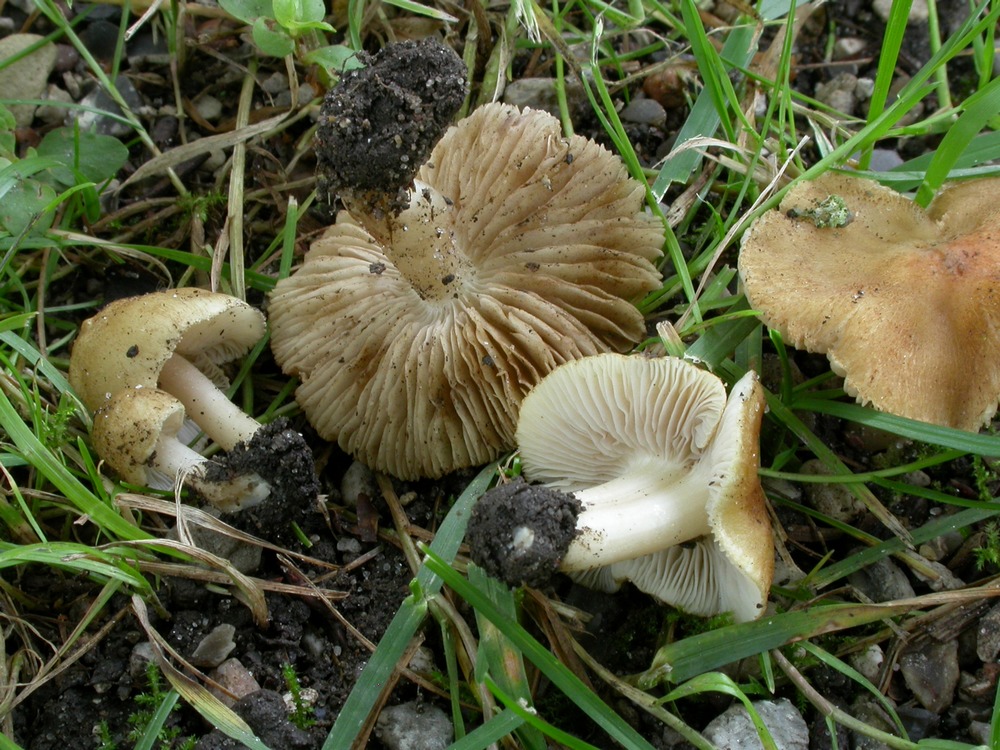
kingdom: Fungi
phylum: Basidiomycota
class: Agaricomycetes
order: Agaricales
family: Inocybaceae
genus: Inocybe
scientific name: Inocybe
